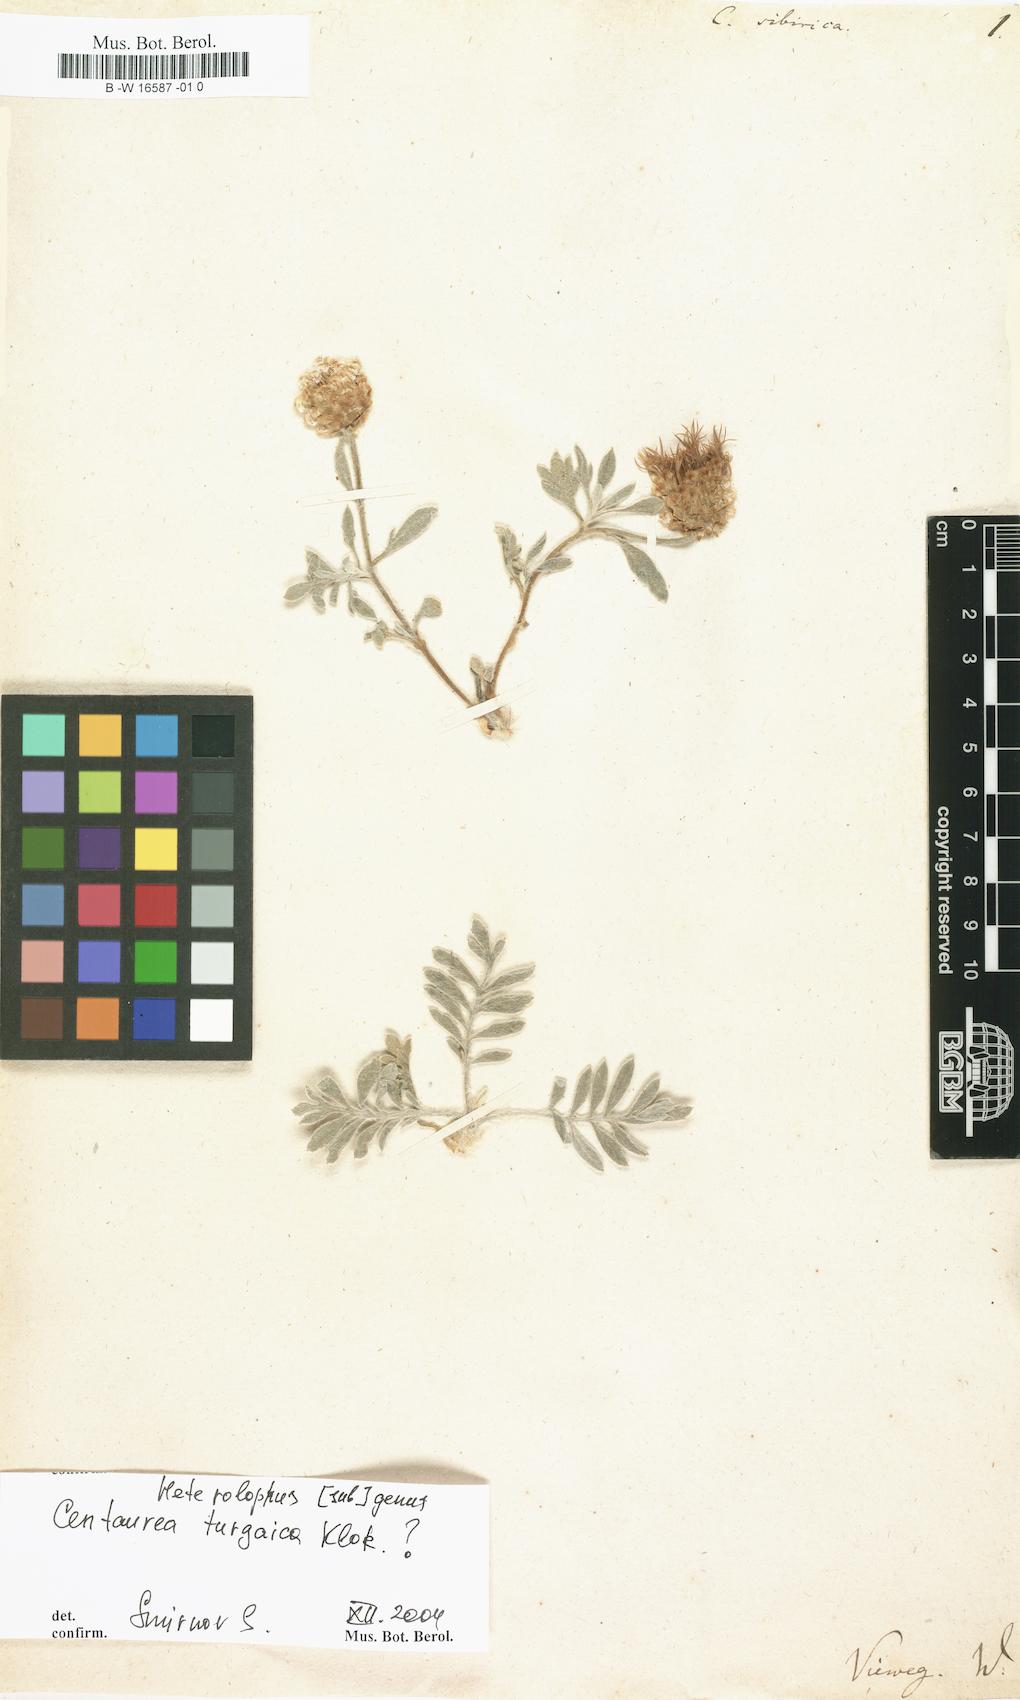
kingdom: Plantae
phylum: Tracheophyta
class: Magnoliopsida
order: Asterales
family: Asteraceae
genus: Psephellus
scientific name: Psephellus sibiricus
